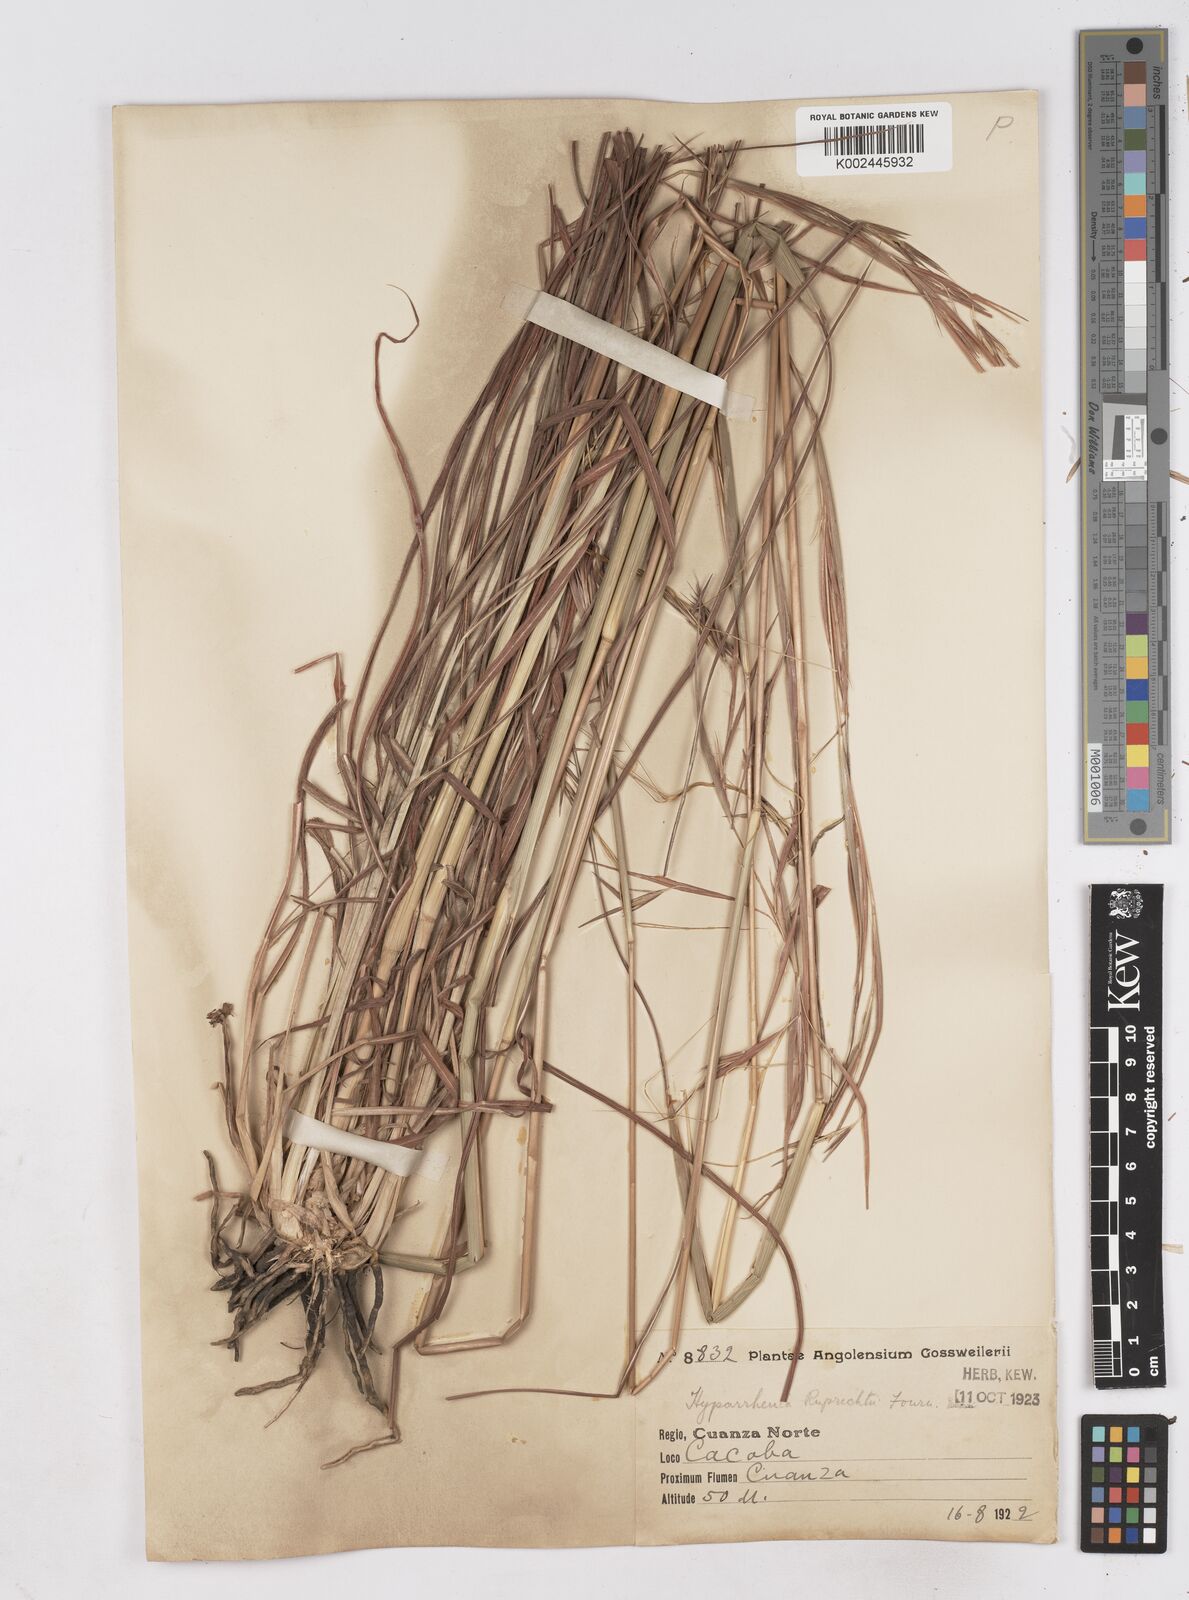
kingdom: Plantae
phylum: Tracheophyta
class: Liliopsida
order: Poales
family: Poaceae
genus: Hyperthelia
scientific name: Hyperthelia dissoluta
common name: Yellow thatching grass
